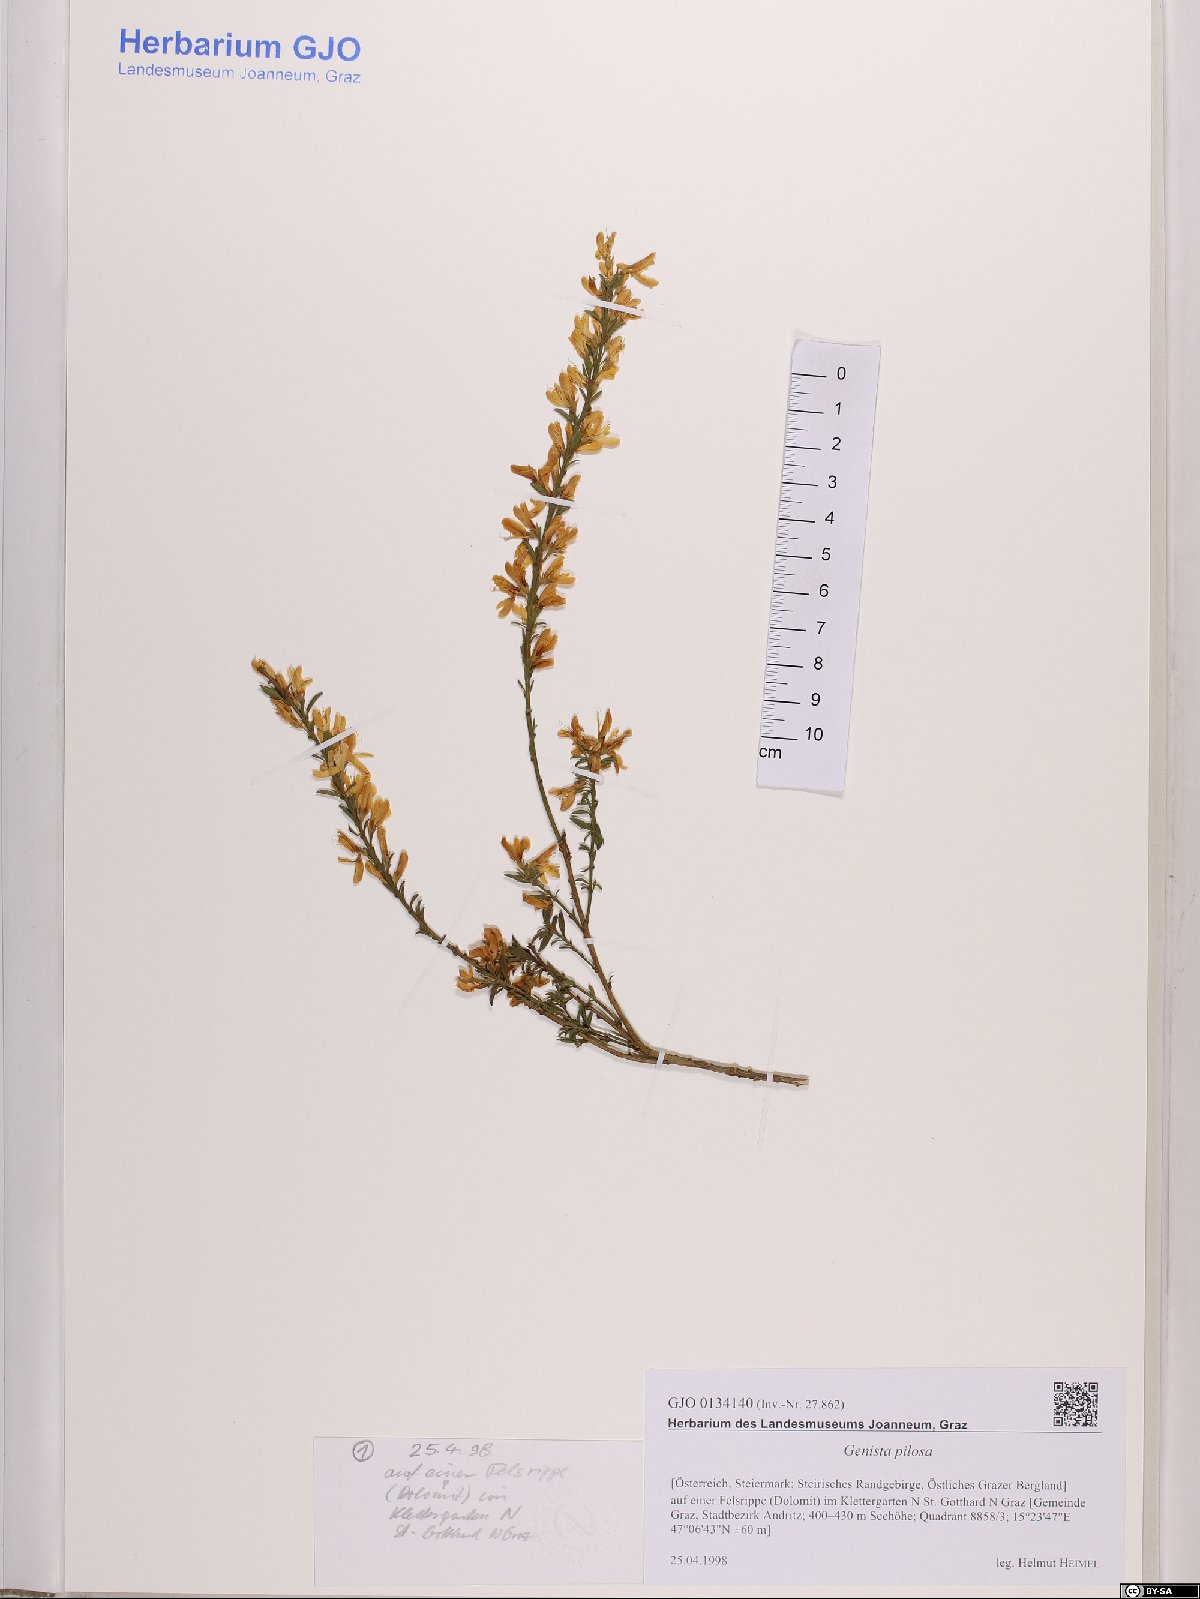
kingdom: Plantae
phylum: Tracheophyta
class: Magnoliopsida
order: Fabales
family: Fabaceae
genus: Genista
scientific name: Genista pilosa
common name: Hairy greenweed
